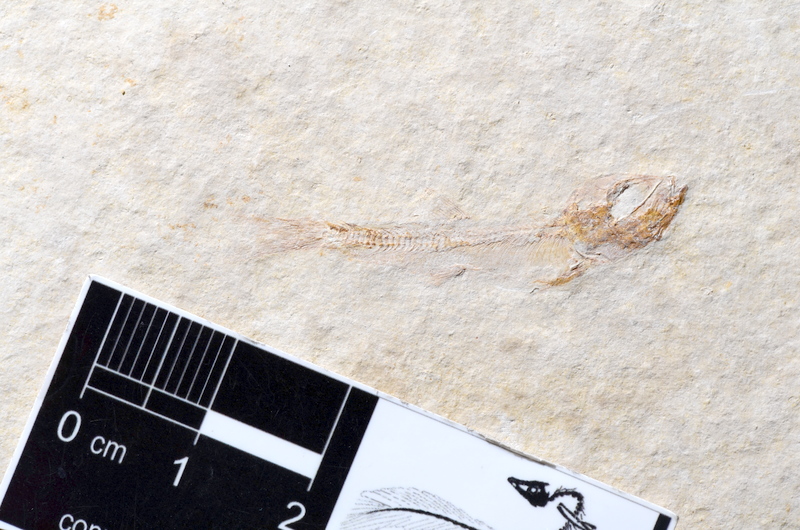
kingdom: Animalia
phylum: Chordata
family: Ascalaboidae
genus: Tharsis
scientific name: Tharsis dubius
